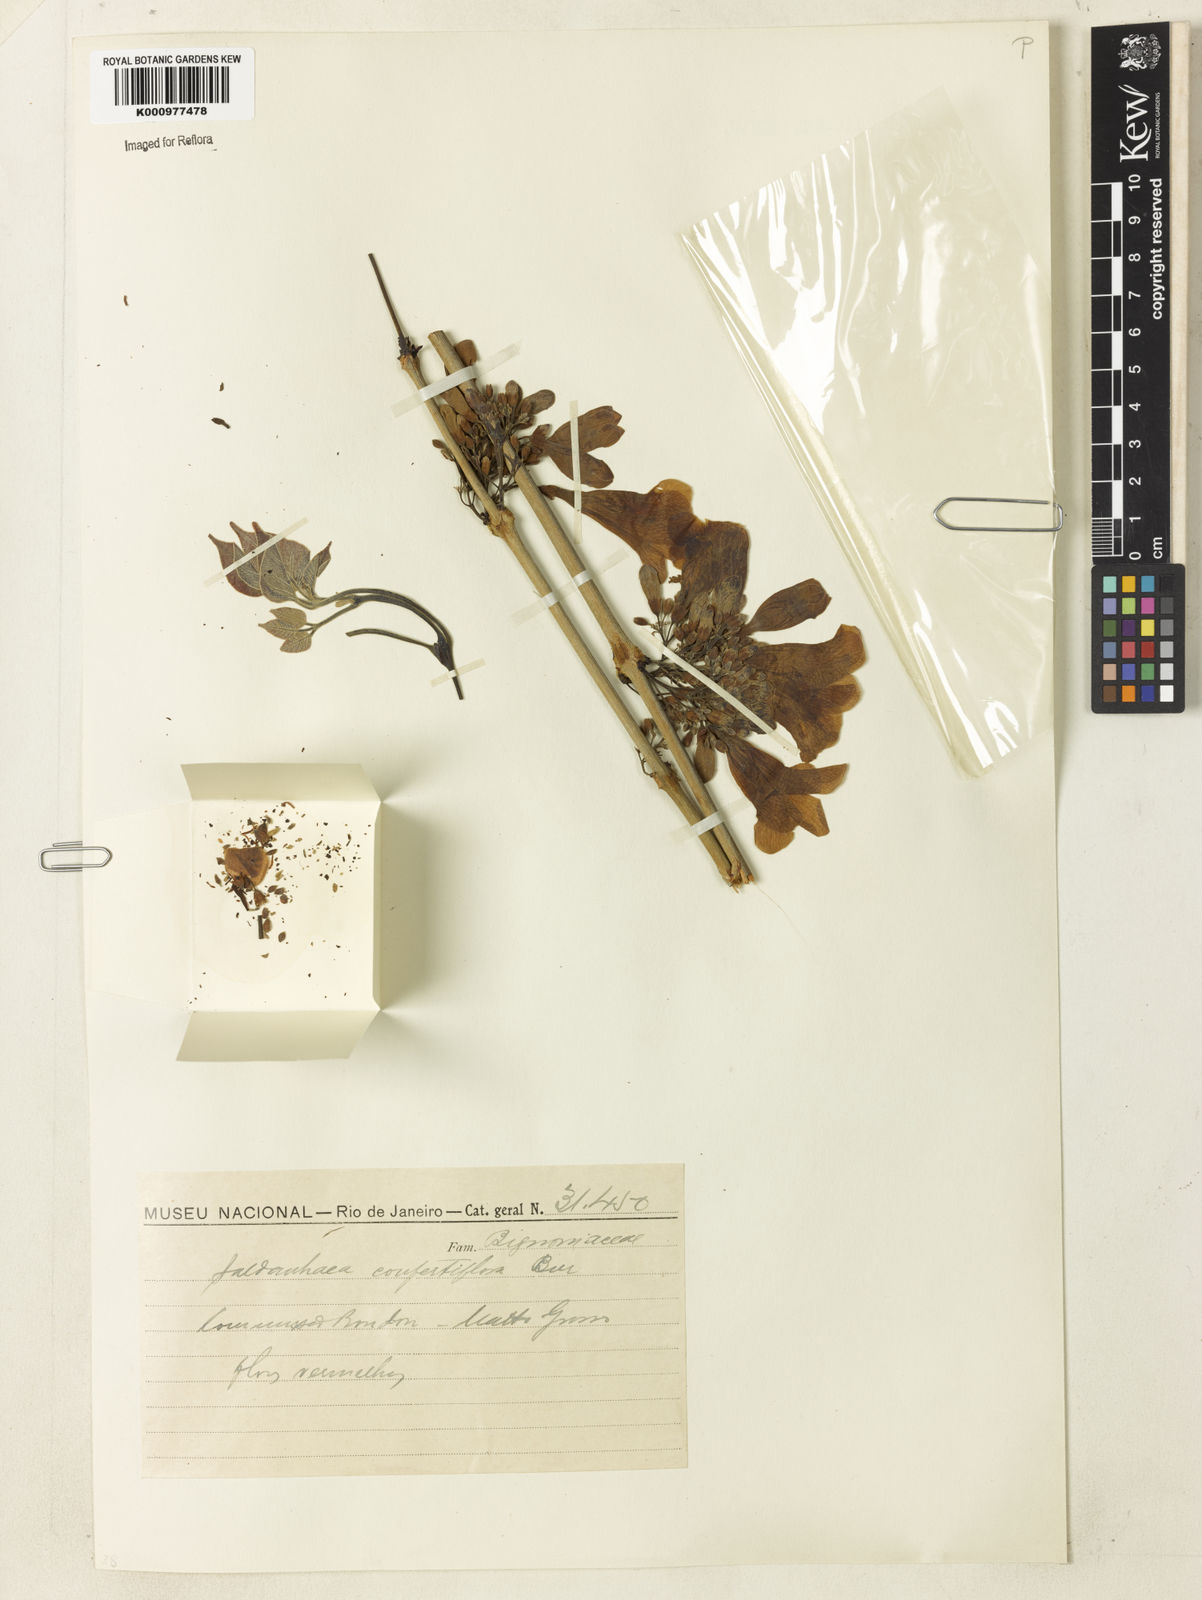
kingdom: Plantae
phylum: Tracheophyta
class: Magnoliopsida
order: Lamiales
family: Bignoniaceae
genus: Cuspidaria
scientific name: Cuspidaria
